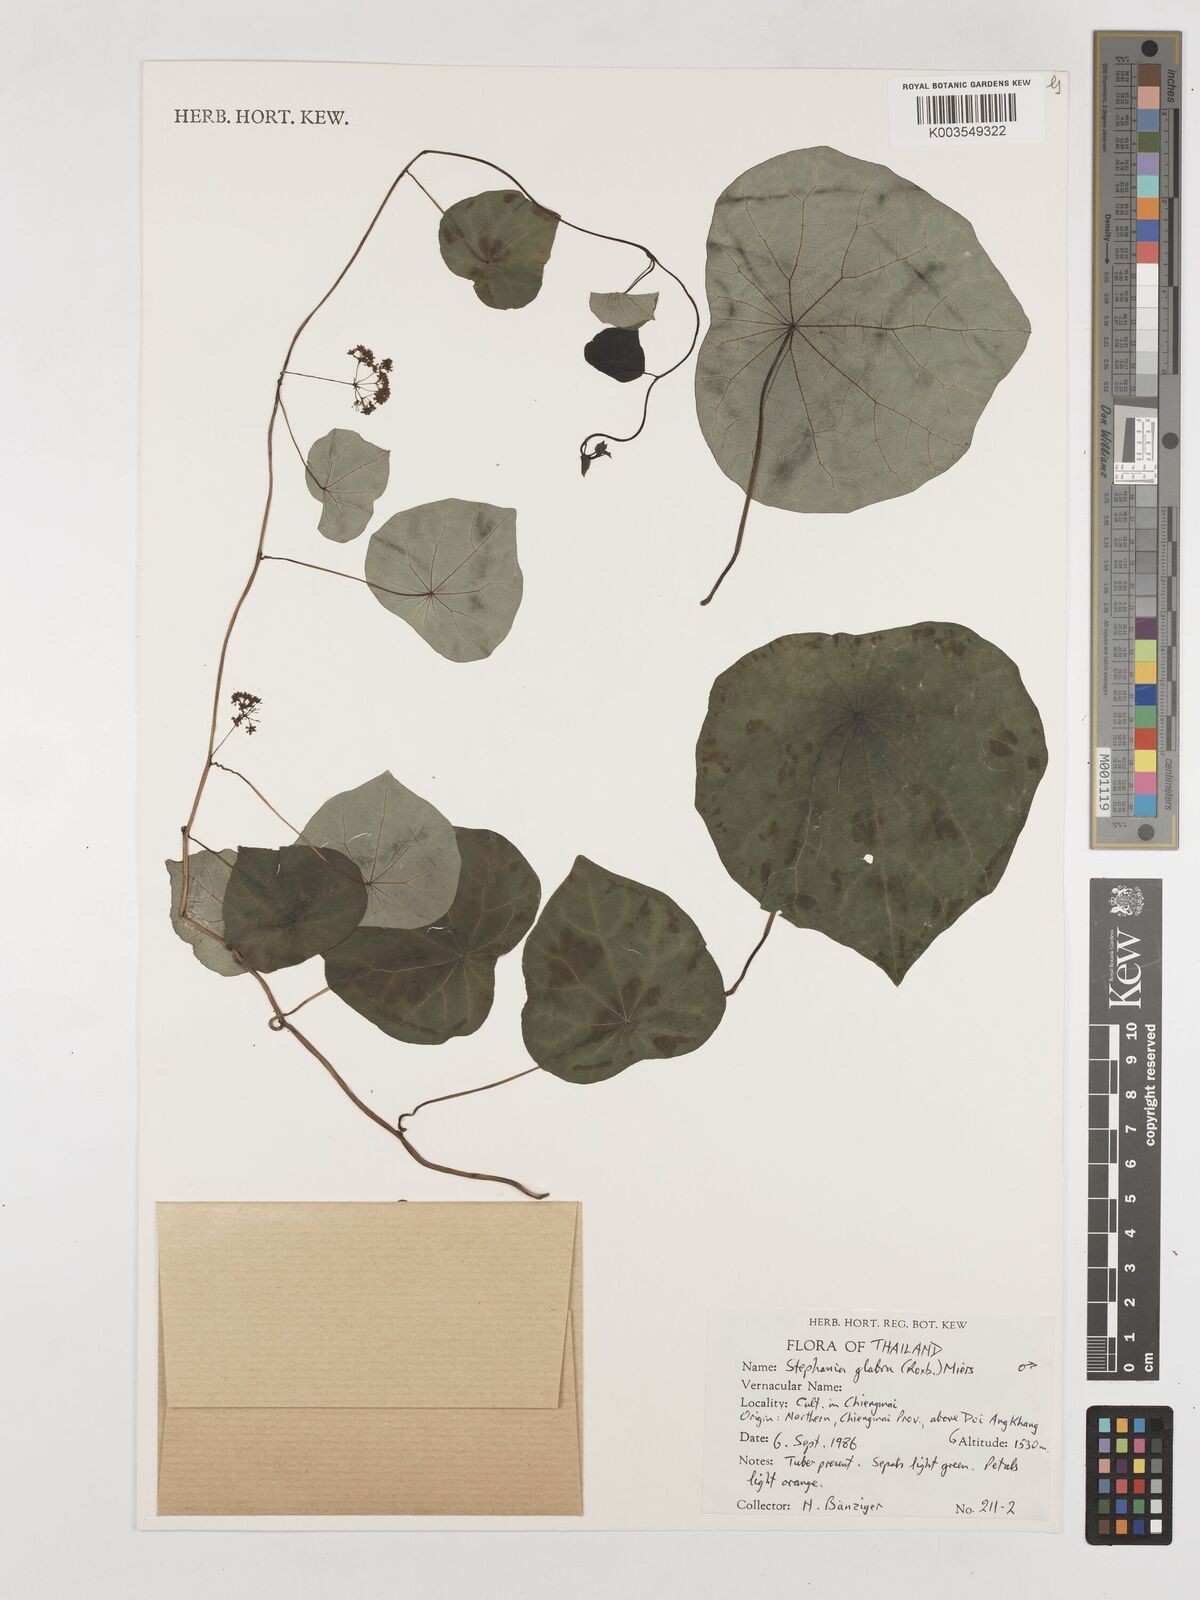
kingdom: Plantae
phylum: Tracheophyta
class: Magnoliopsida
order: Ranunculales
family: Menispermaceae
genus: Stephania
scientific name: Stephania rotunda
